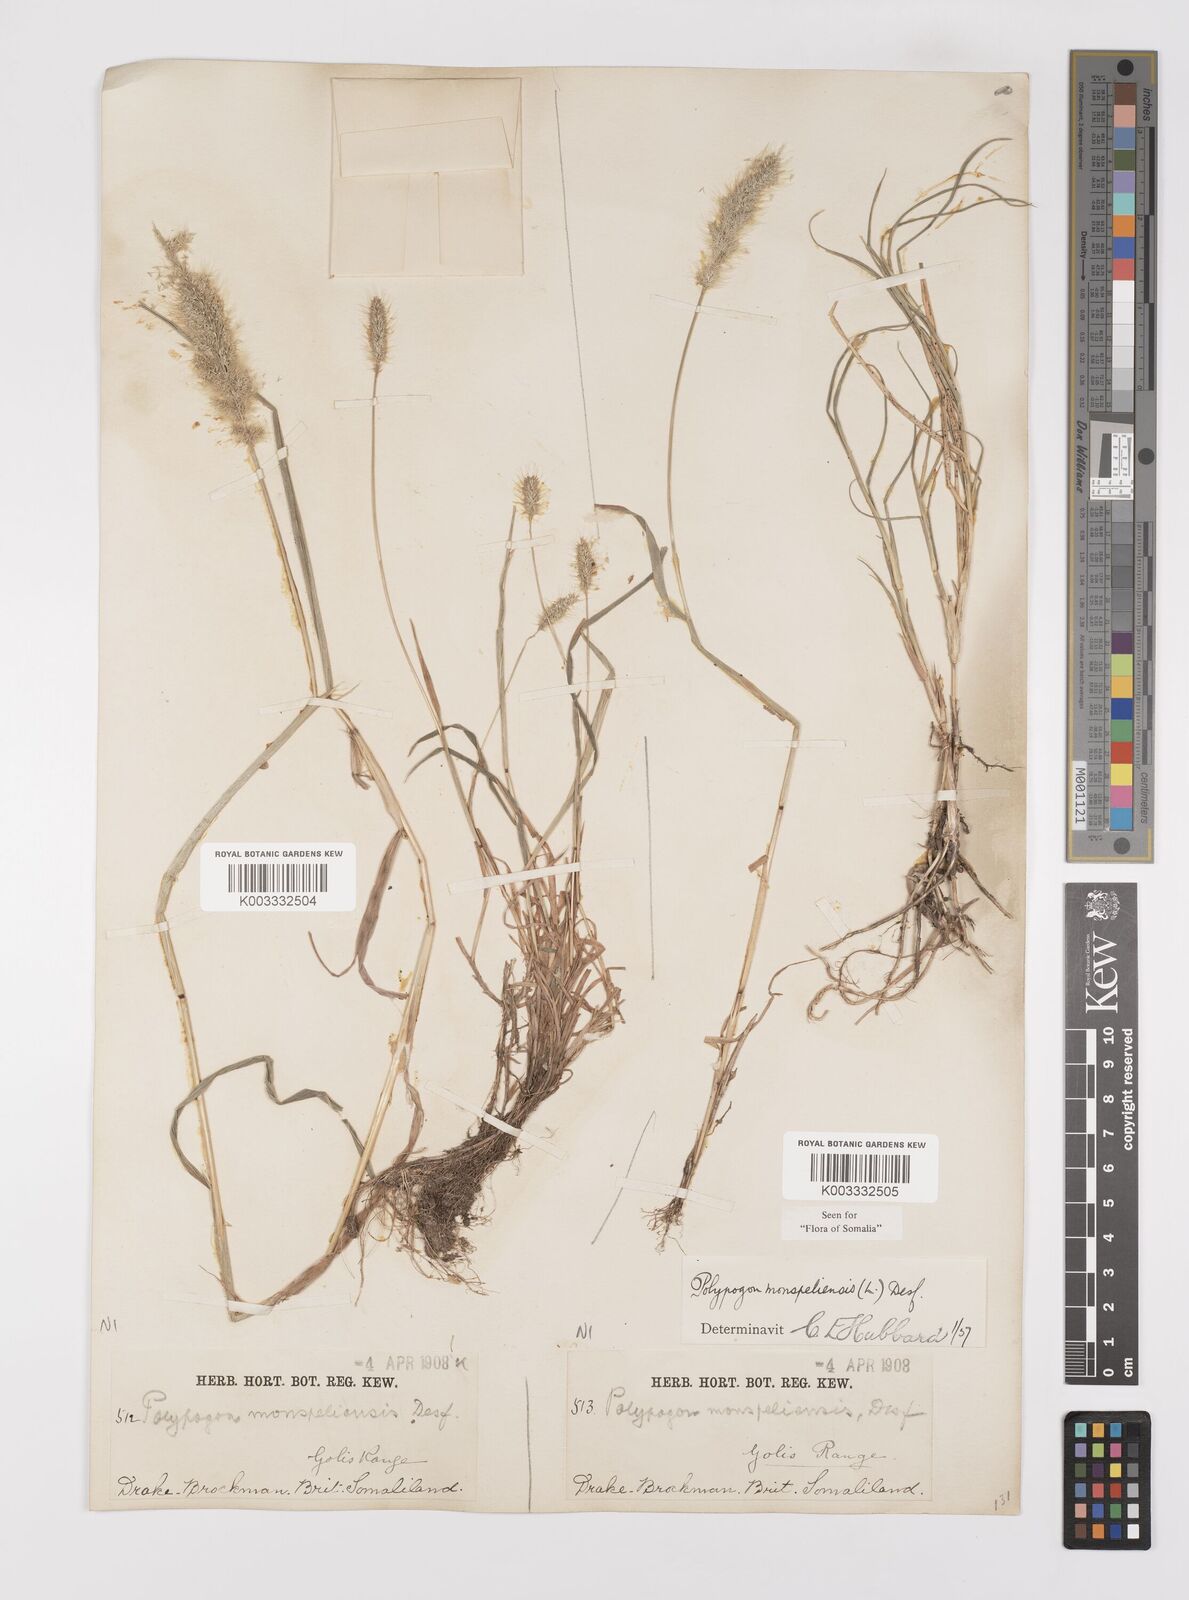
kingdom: Plantae
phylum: Tracheophyta
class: Liliopsida
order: Poales
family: Poaceae
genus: Polypogon
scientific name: Polypogon monspeliensis
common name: Annual rabbitsfoot grass
